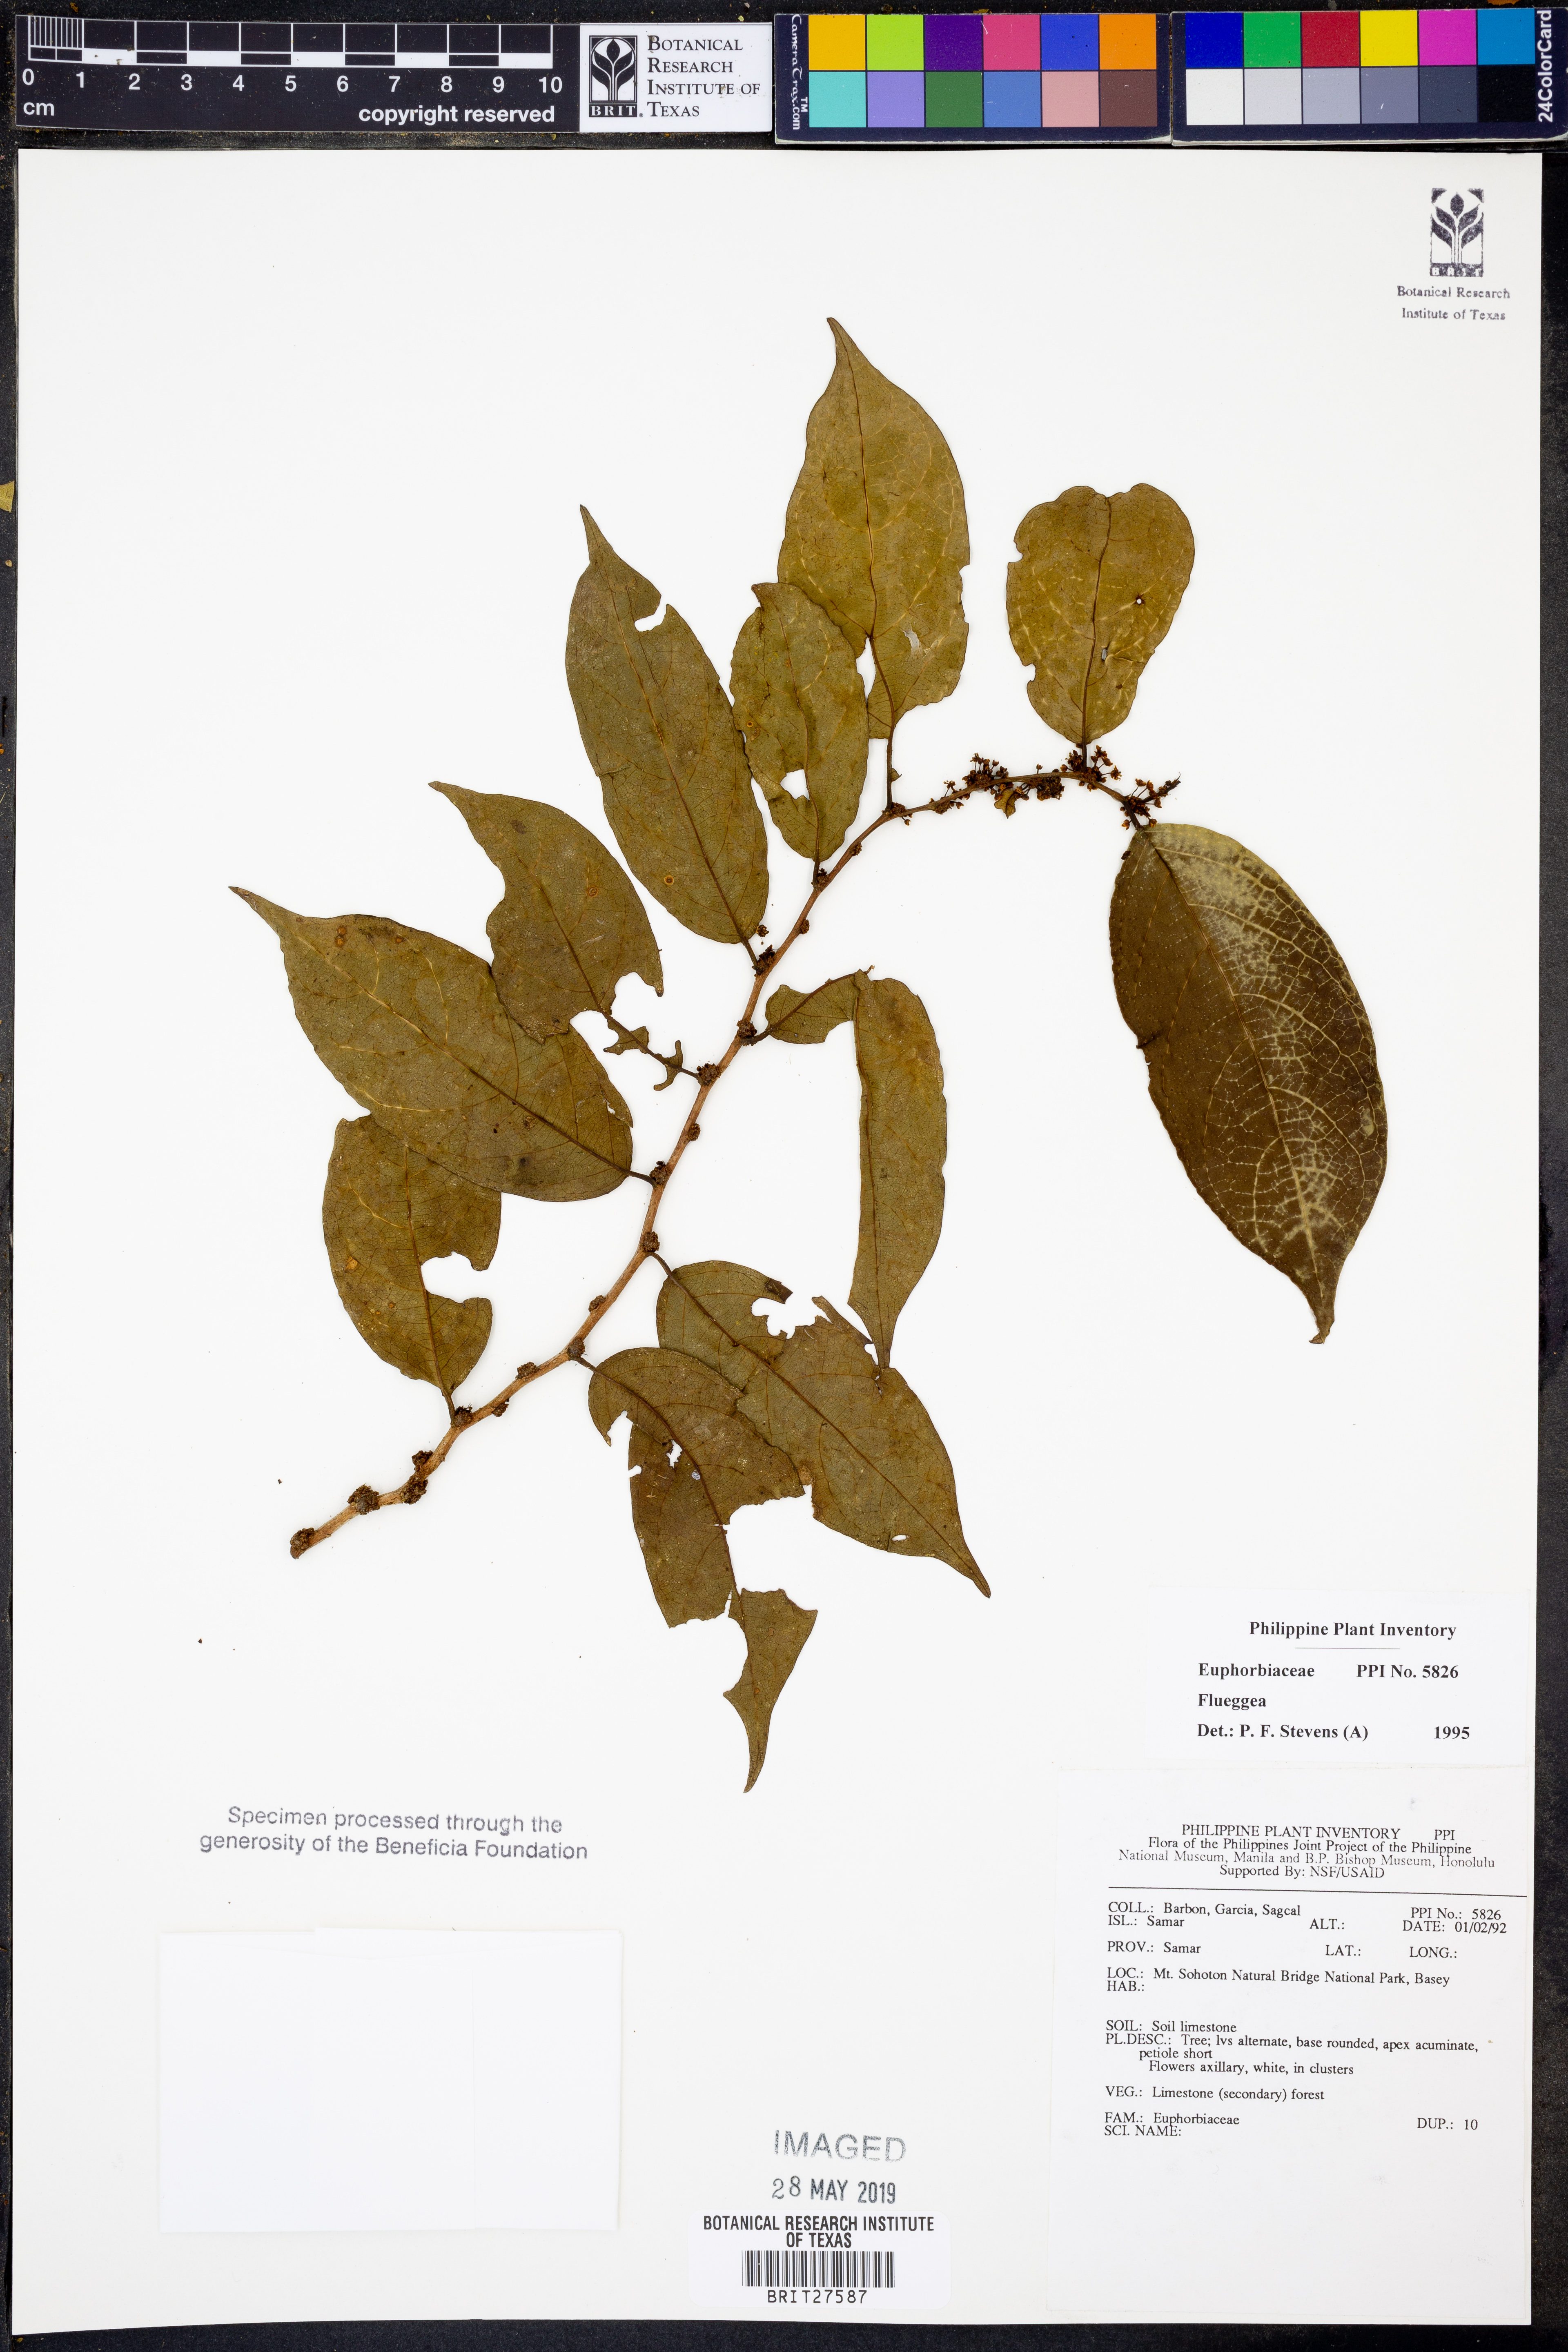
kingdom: Plantae
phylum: Tracheophyta
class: Magnoliopsida
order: Malpighiales
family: Phyllanthaceae
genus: Flueggea
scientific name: Flueggea
